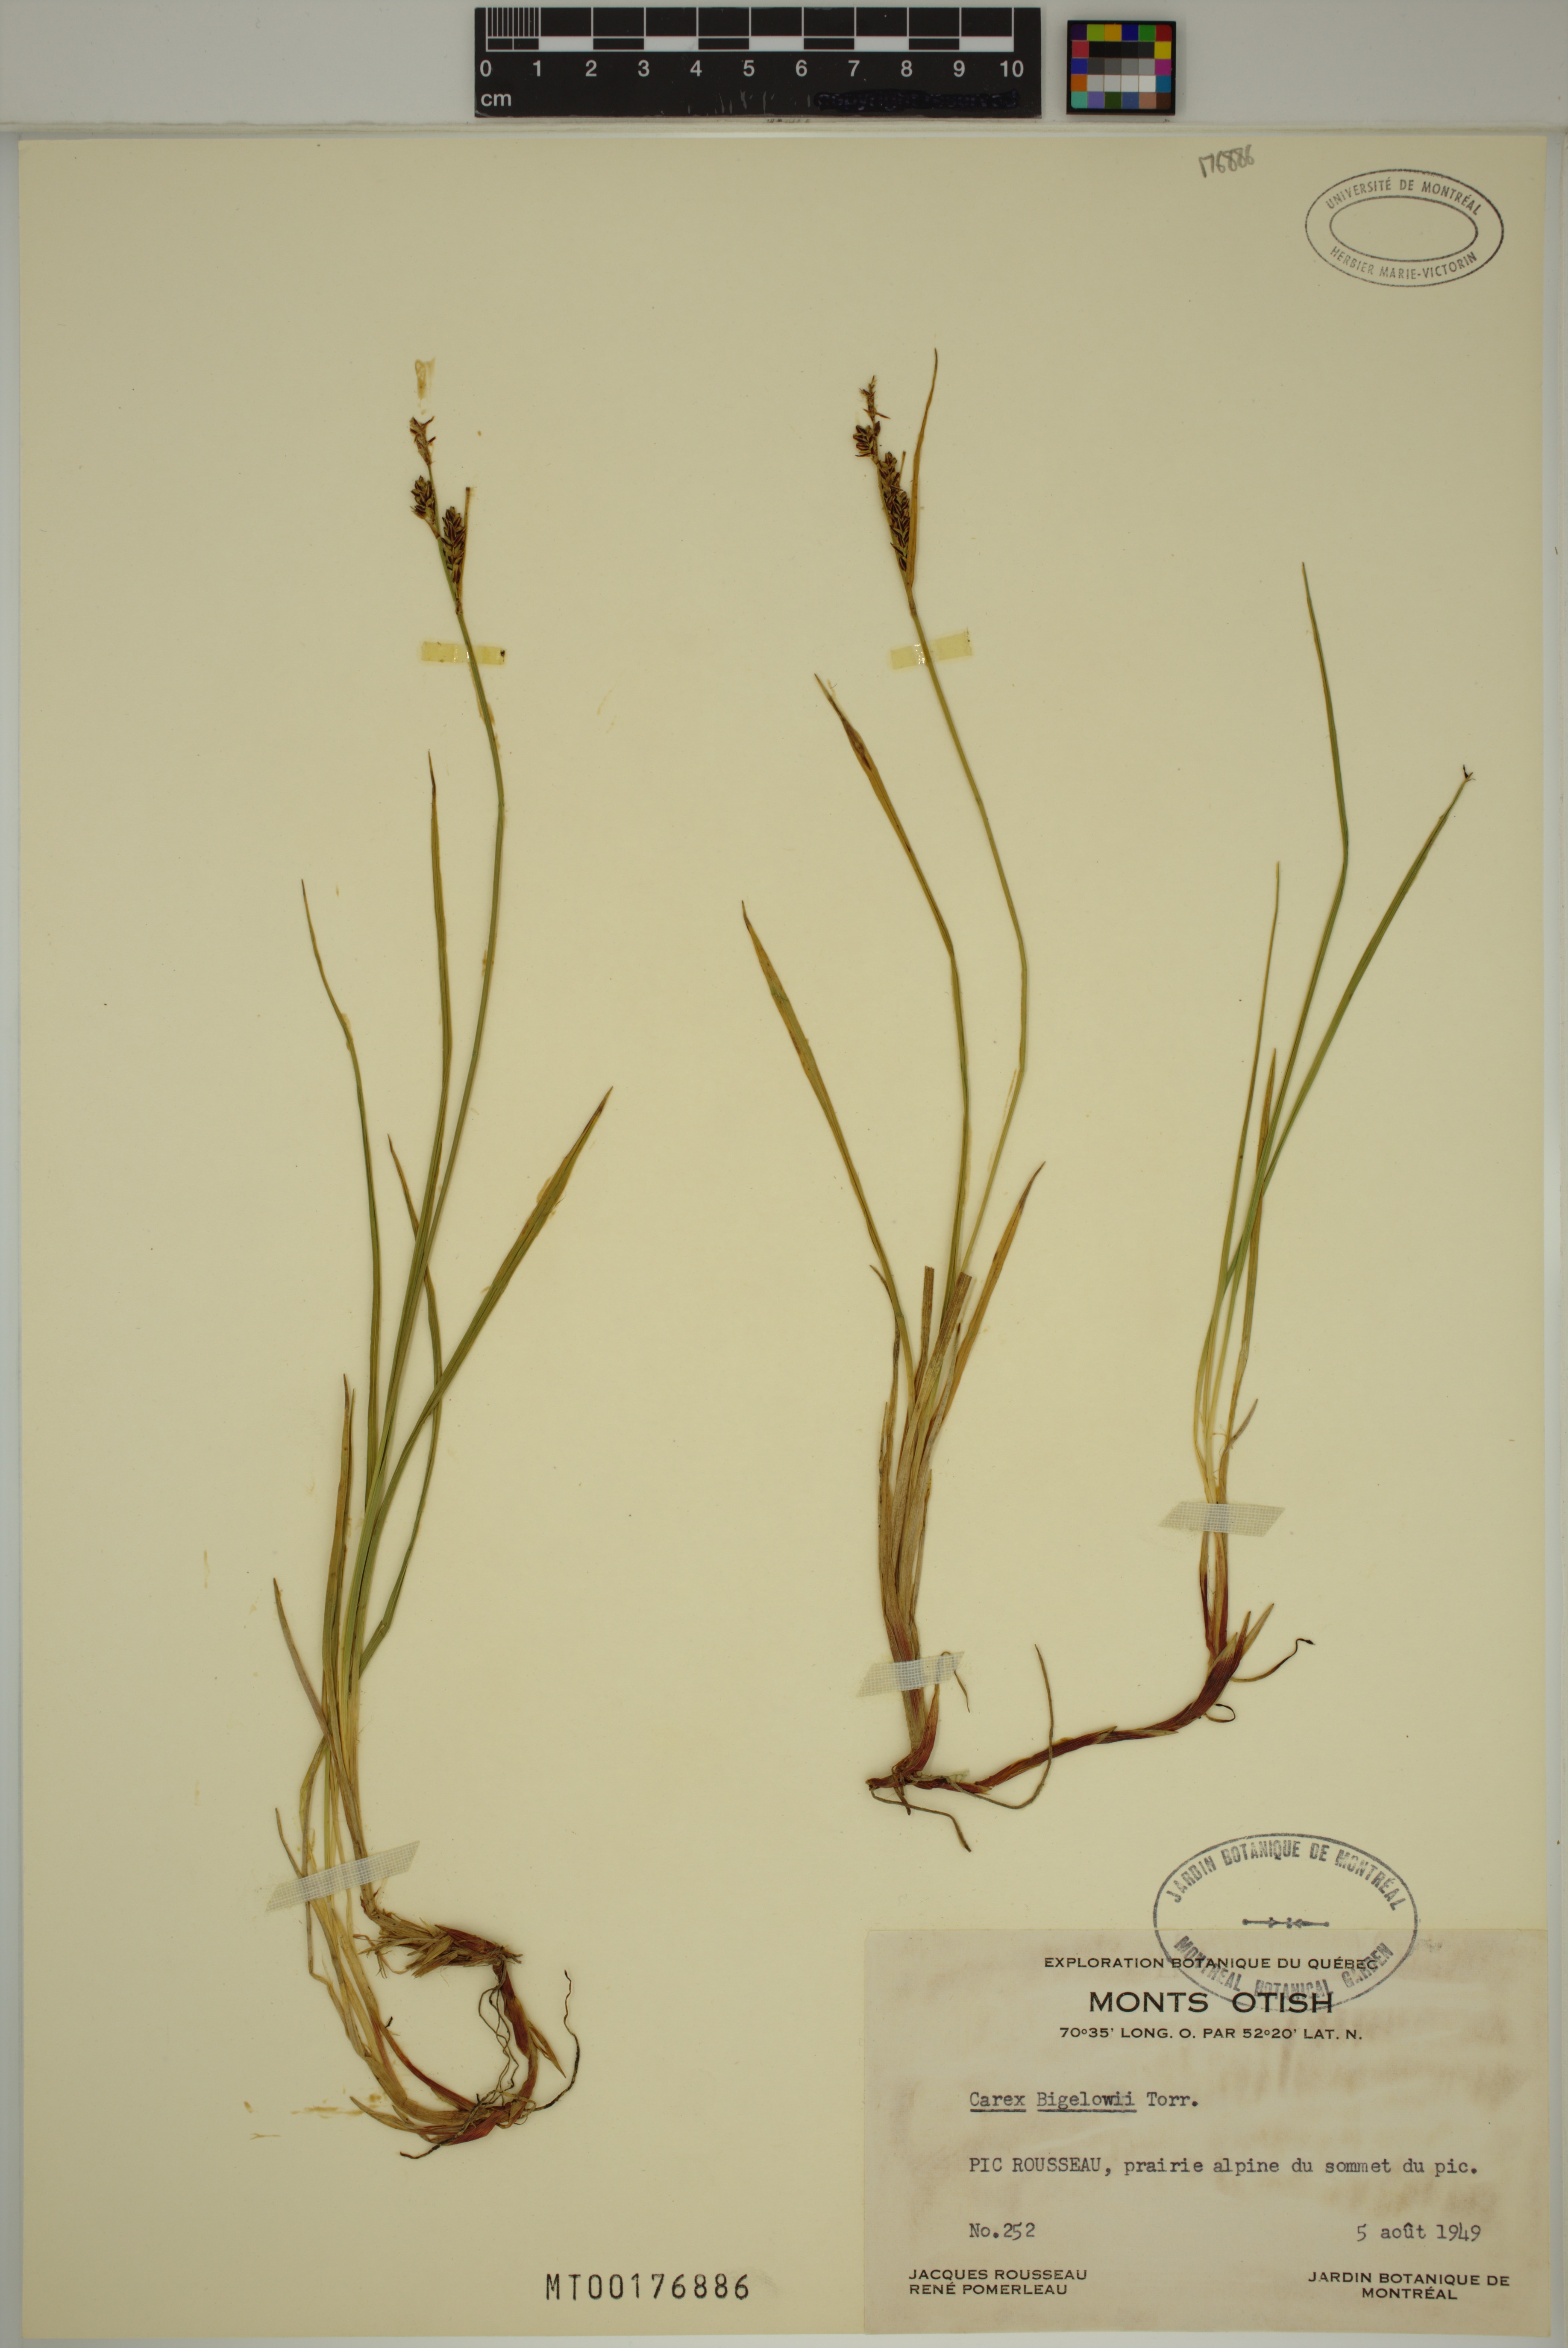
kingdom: Plantae
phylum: Tracheophyta
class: Liliopsida
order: Poales
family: Cyperaceae
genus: Carex
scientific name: Carex bigelowii
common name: Stiff sedge
